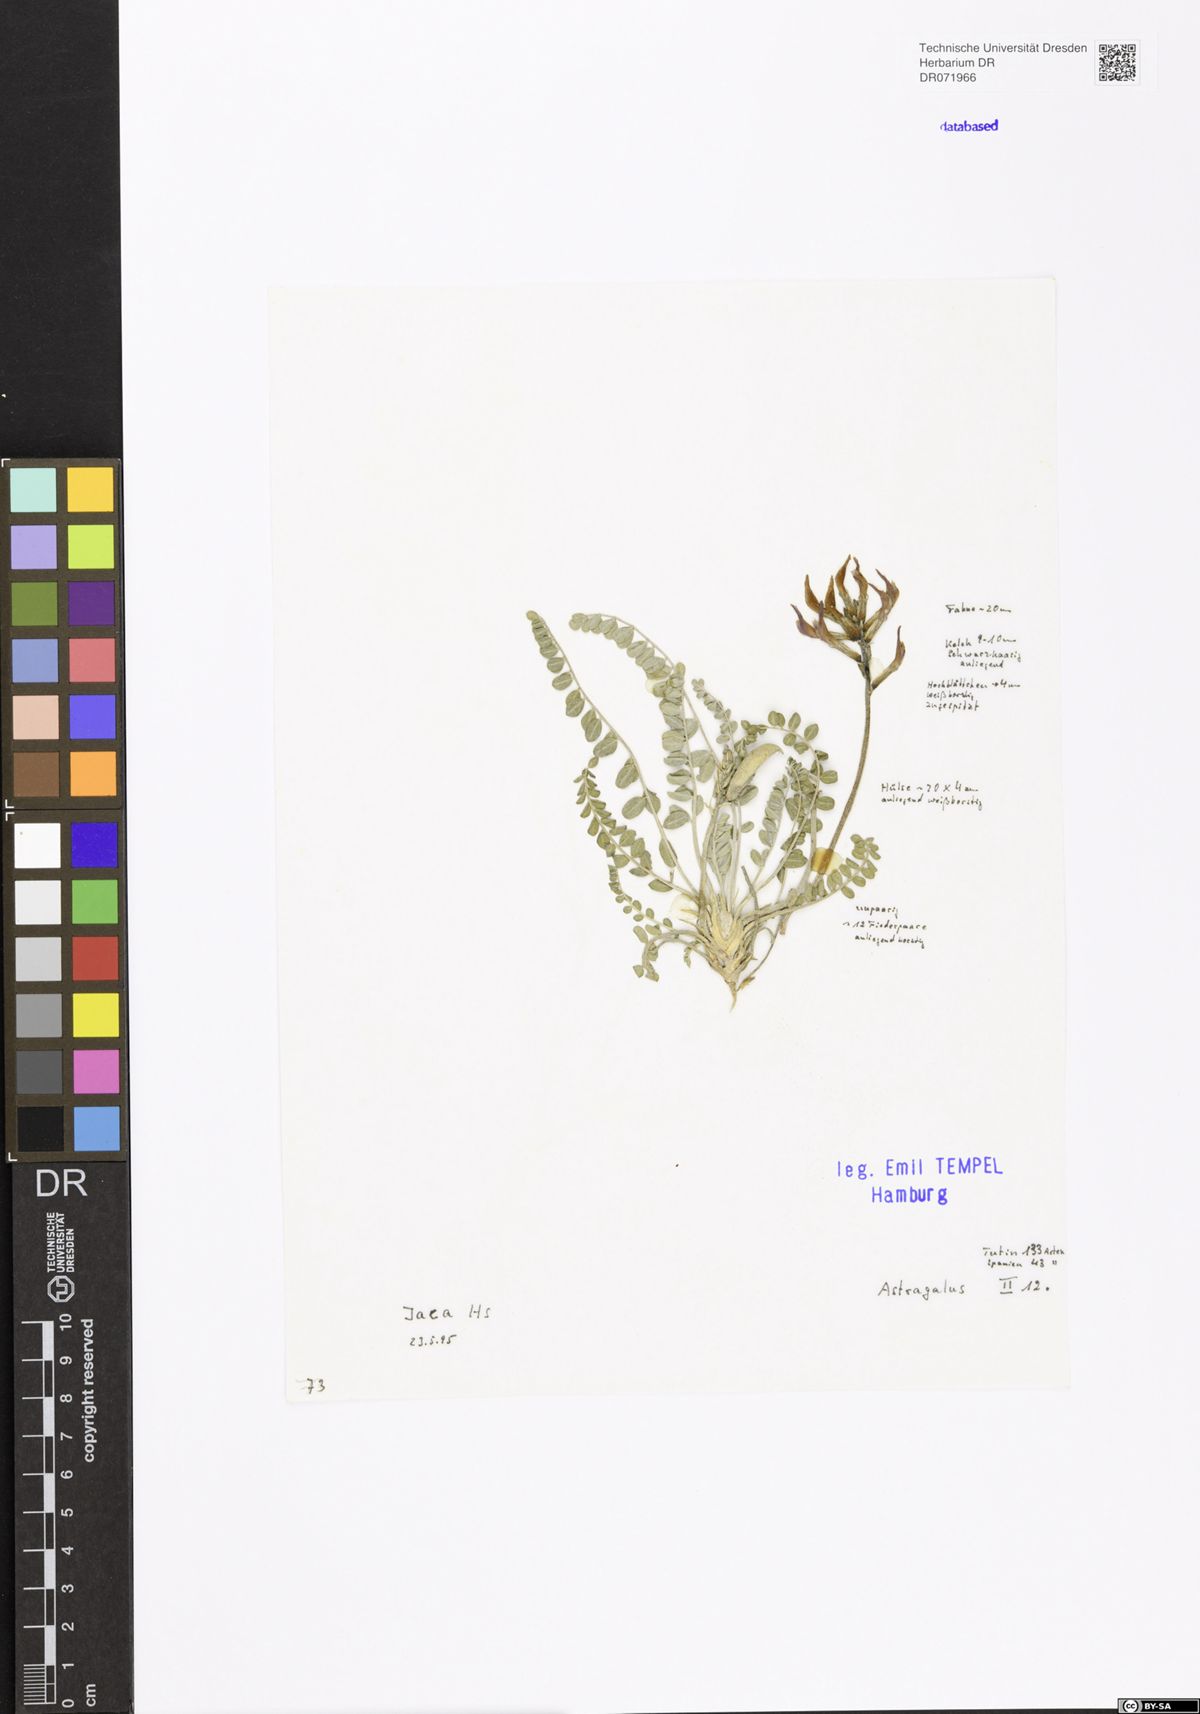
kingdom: Plantae
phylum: Tracheophyta
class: Magnoliopsida
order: Fabales
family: Fabaceae
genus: Astragalus
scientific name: Astragalus
